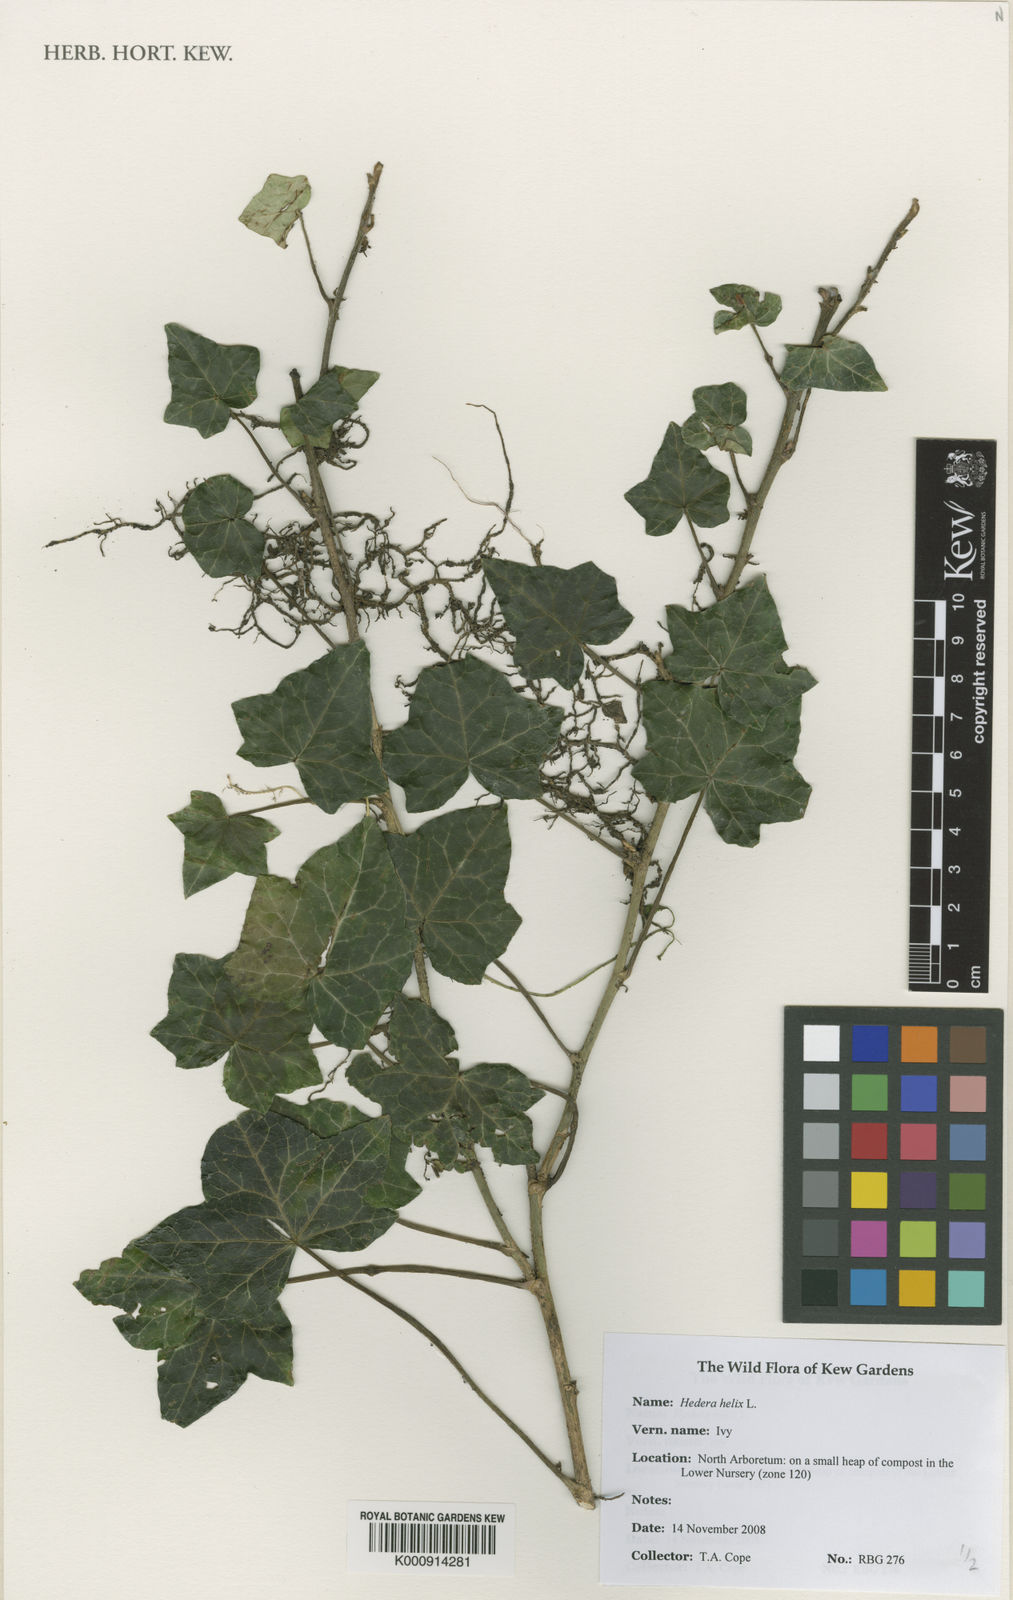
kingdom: Plantae
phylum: Tracheophyta
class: Magnoliopsida
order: Apiales
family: Araliaceae
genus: Hedera
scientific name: Hedera helix
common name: Ivy
